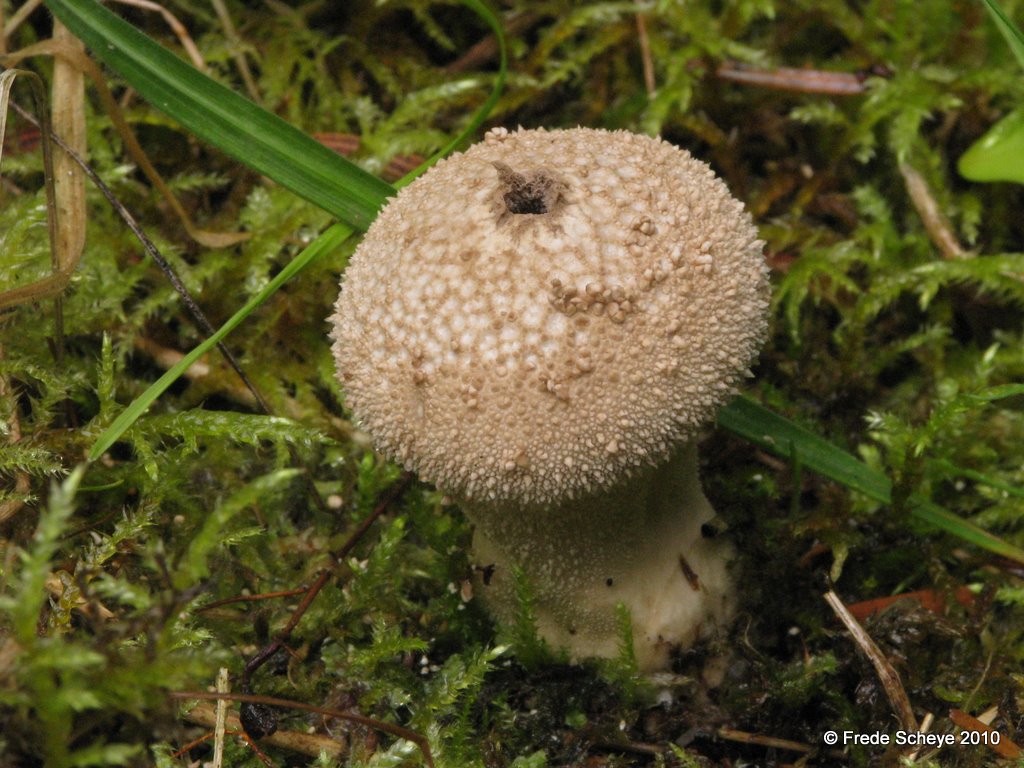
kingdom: Fungi
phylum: Basidiomycota
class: Agaricomycetes
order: Agaricales
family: Lycoperdaceae
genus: Lycoperdon
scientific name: Lycoperdon perlatum
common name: krystal-støvbold
